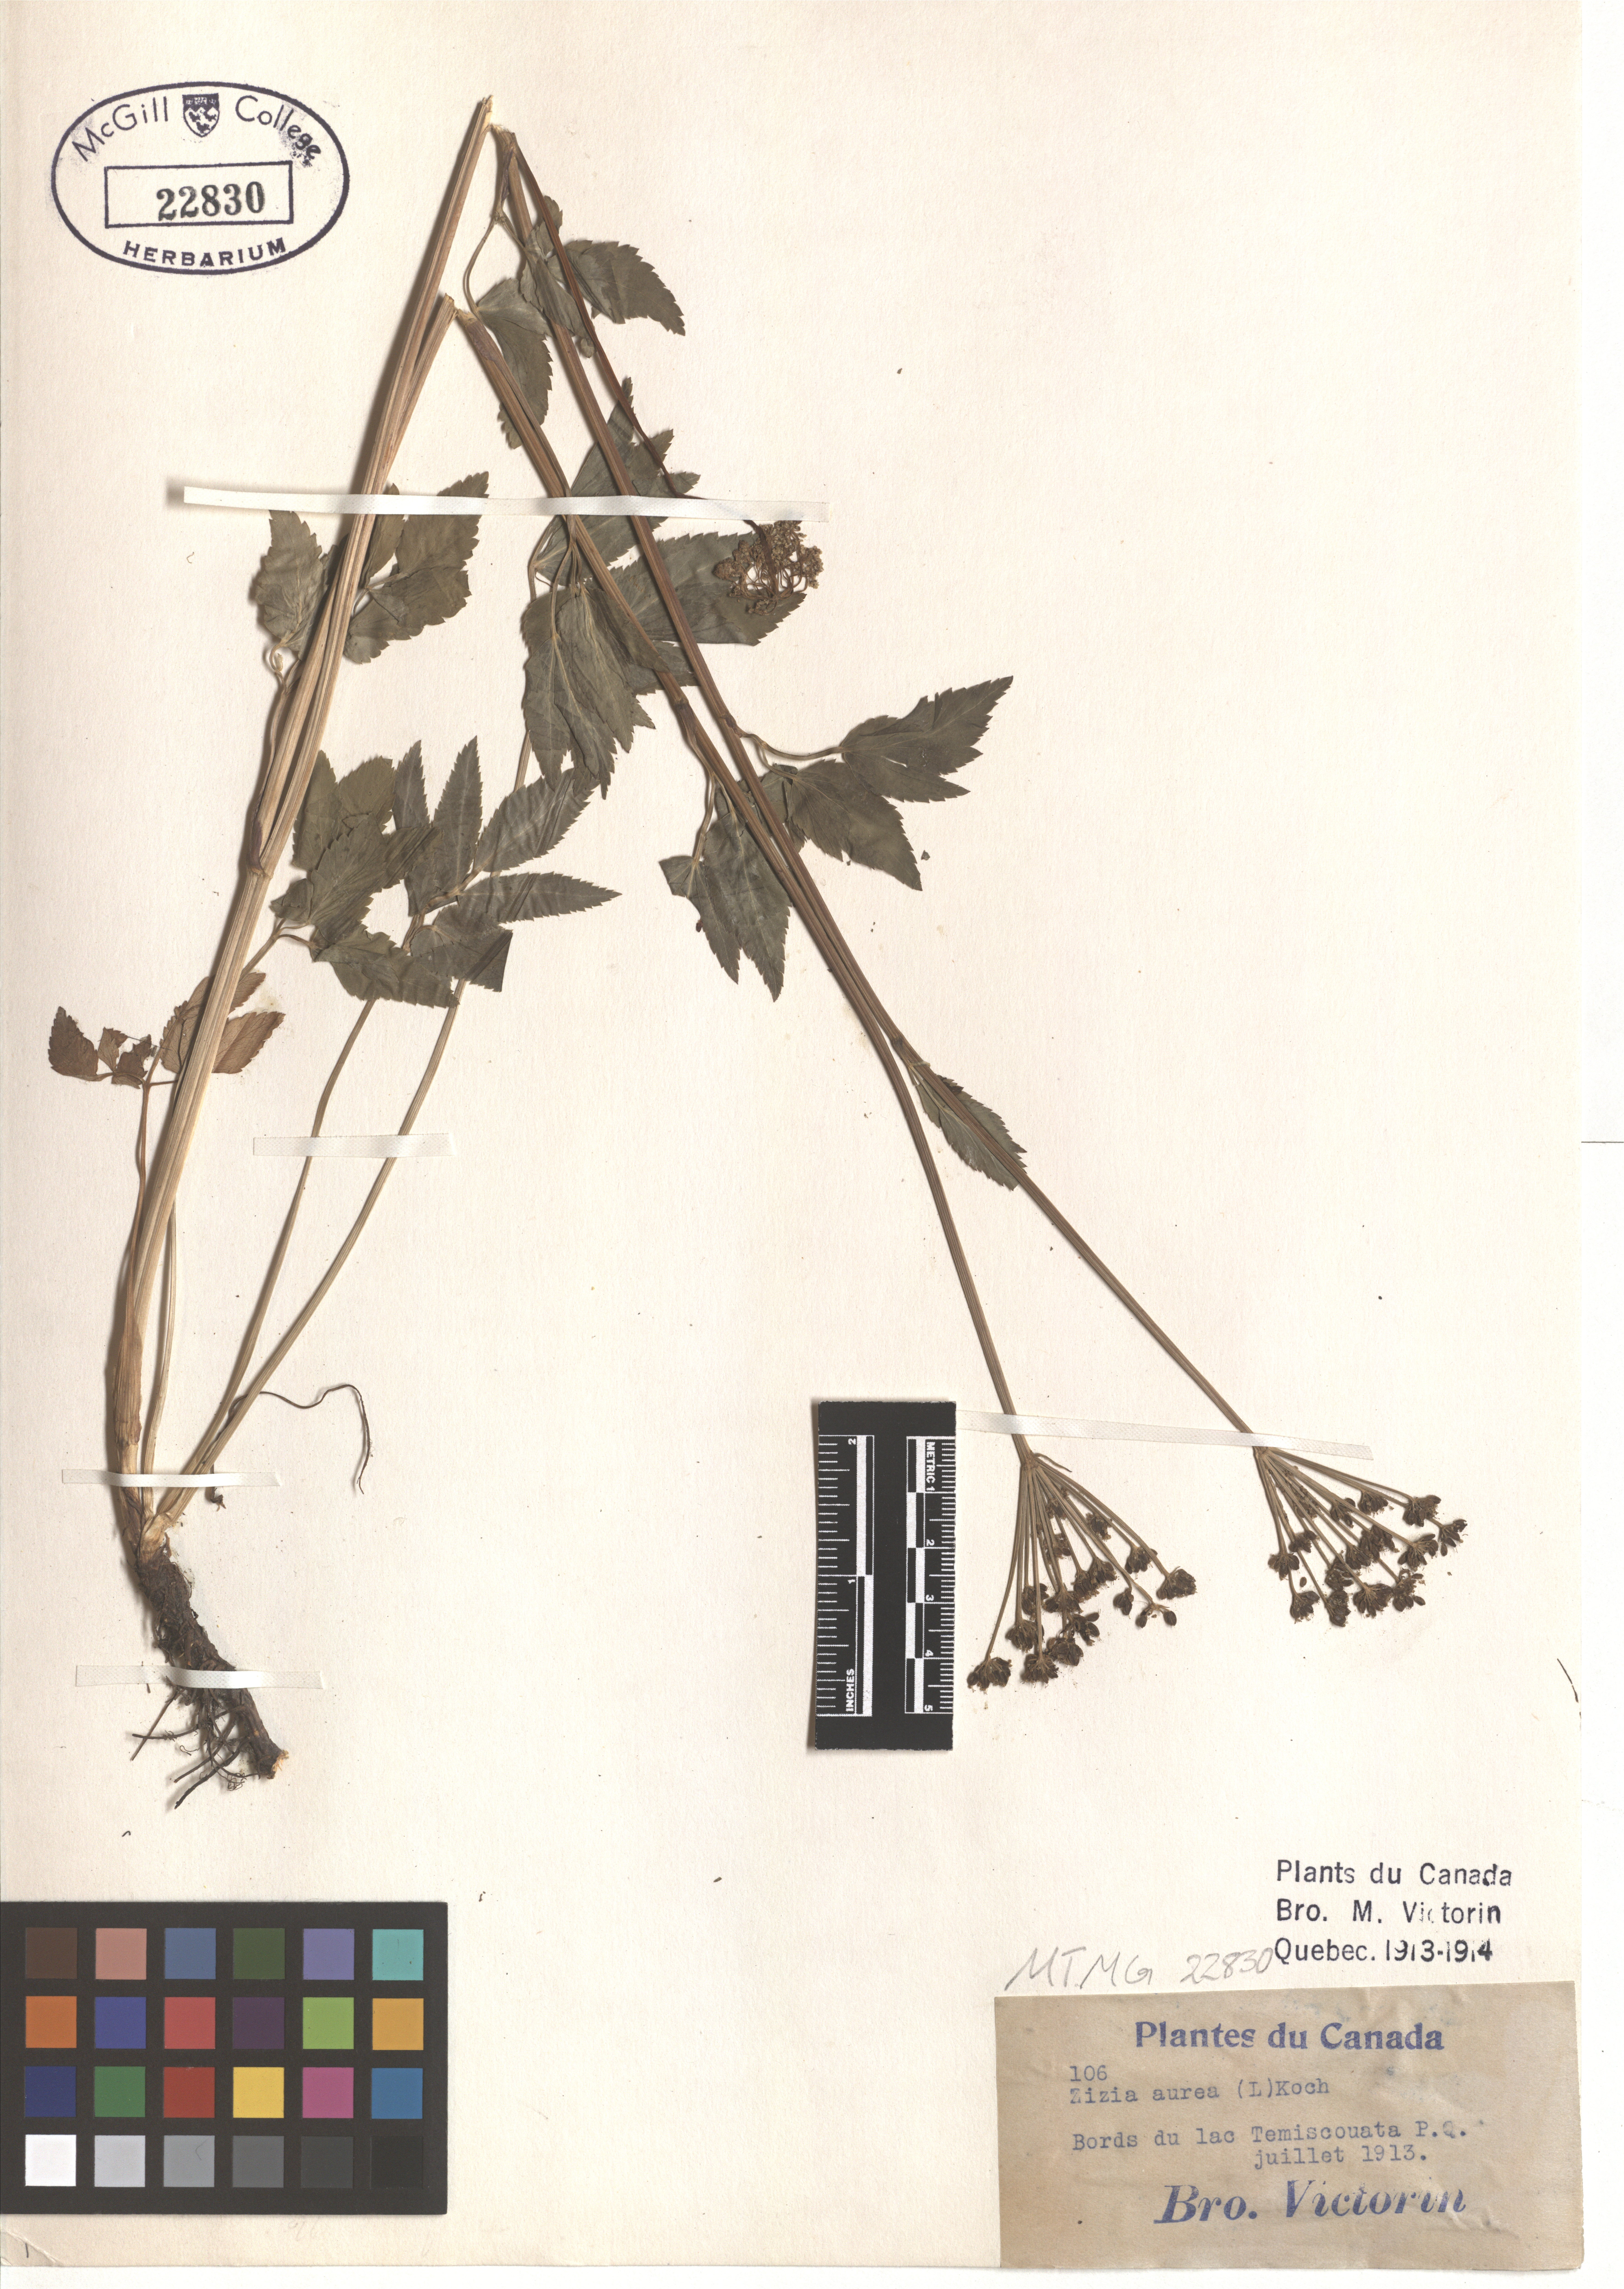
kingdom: Plantae
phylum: Tracheophyta
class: Magnoliopsida
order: Apiales
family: Apiaceae
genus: Zizia
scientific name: Zizia aurea
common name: Golden alexanders
